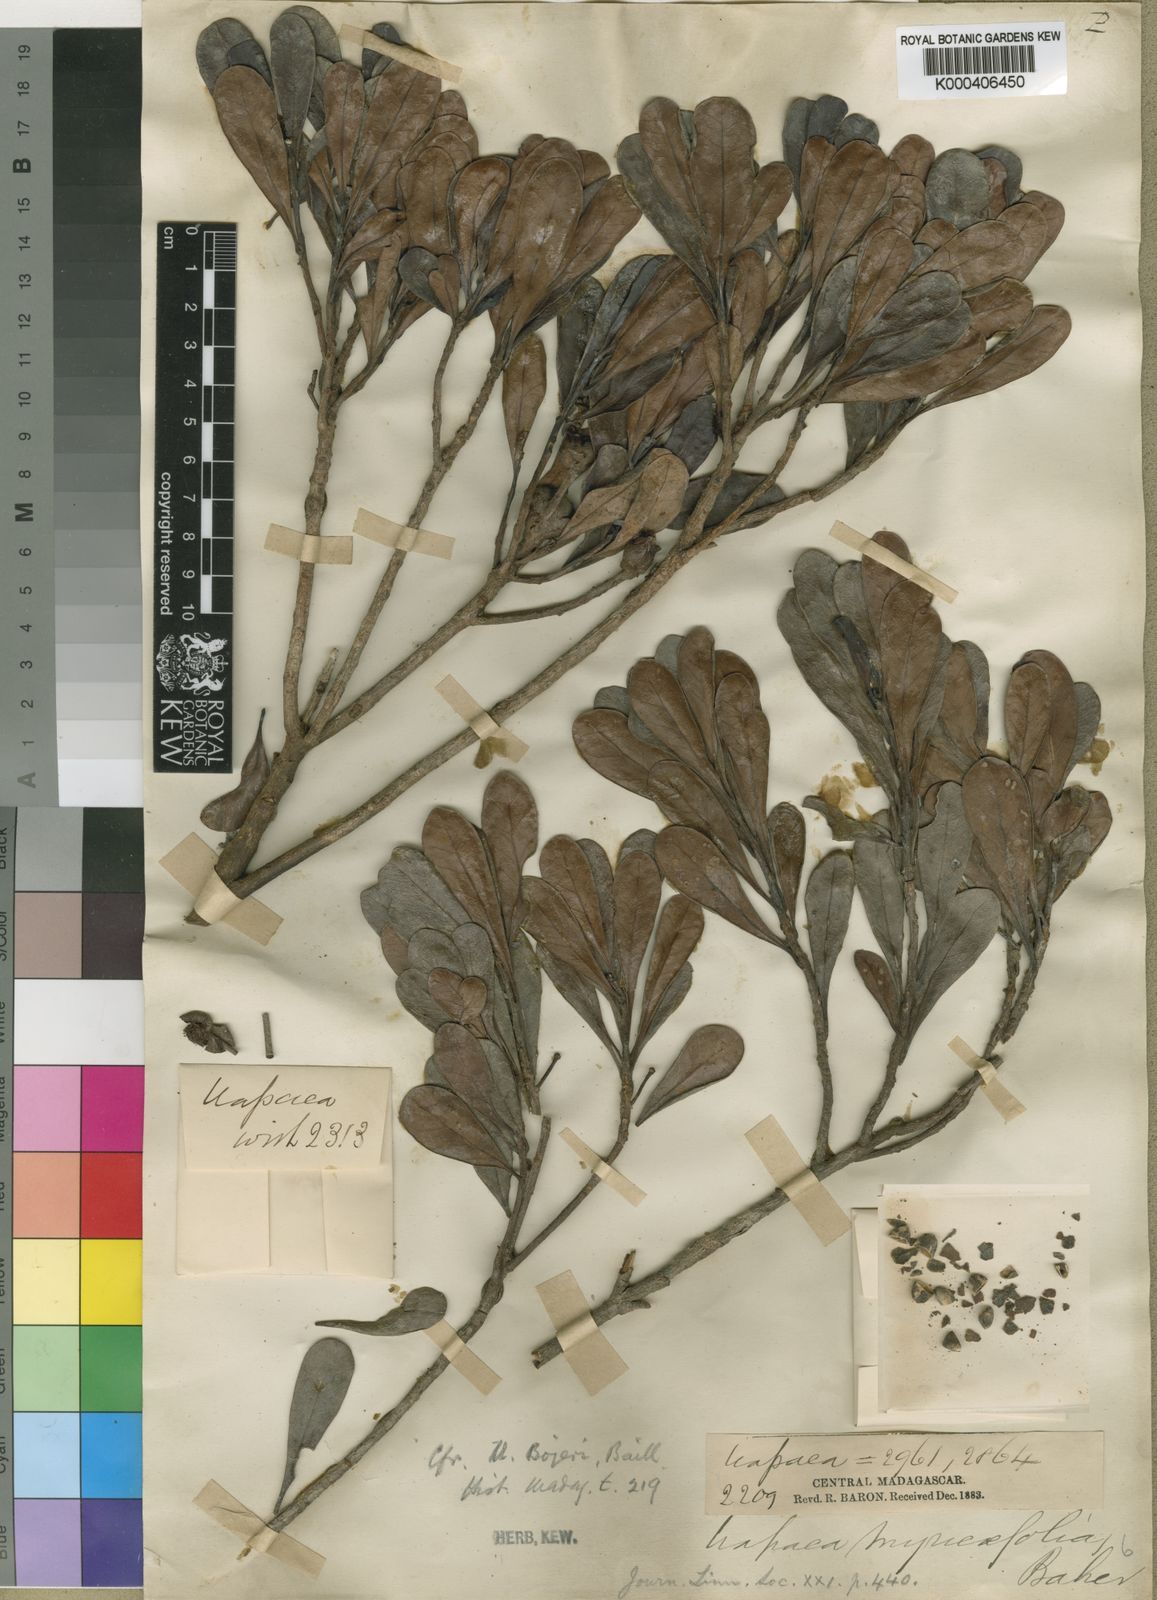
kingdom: Plantae
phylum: Tracheophyta
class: Magnoliopsida
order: Malpighiales
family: Phyllanthaceae
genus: Uapaca
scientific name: Uapaca densifolia
